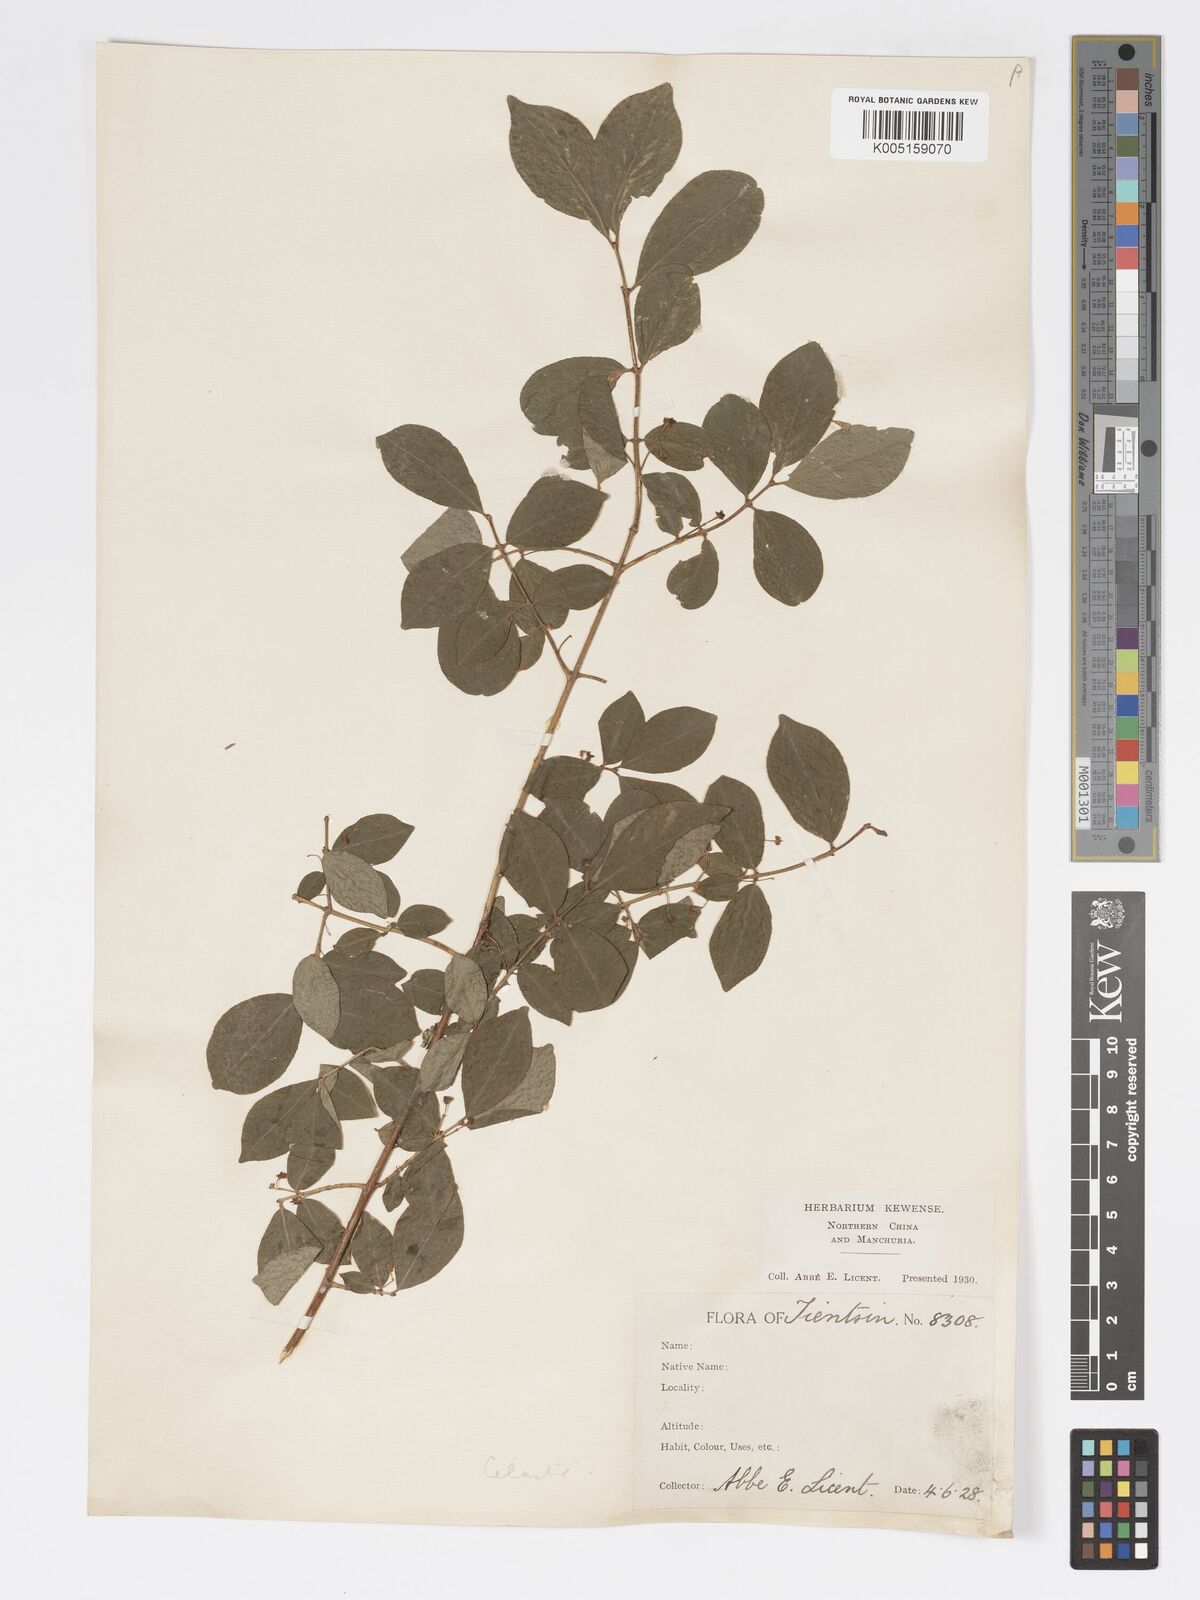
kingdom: Plantae
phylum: Tracheophyta
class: Magnoliopsida
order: Celastrales
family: Celastraceae
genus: Euonymus
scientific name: Euonymus
